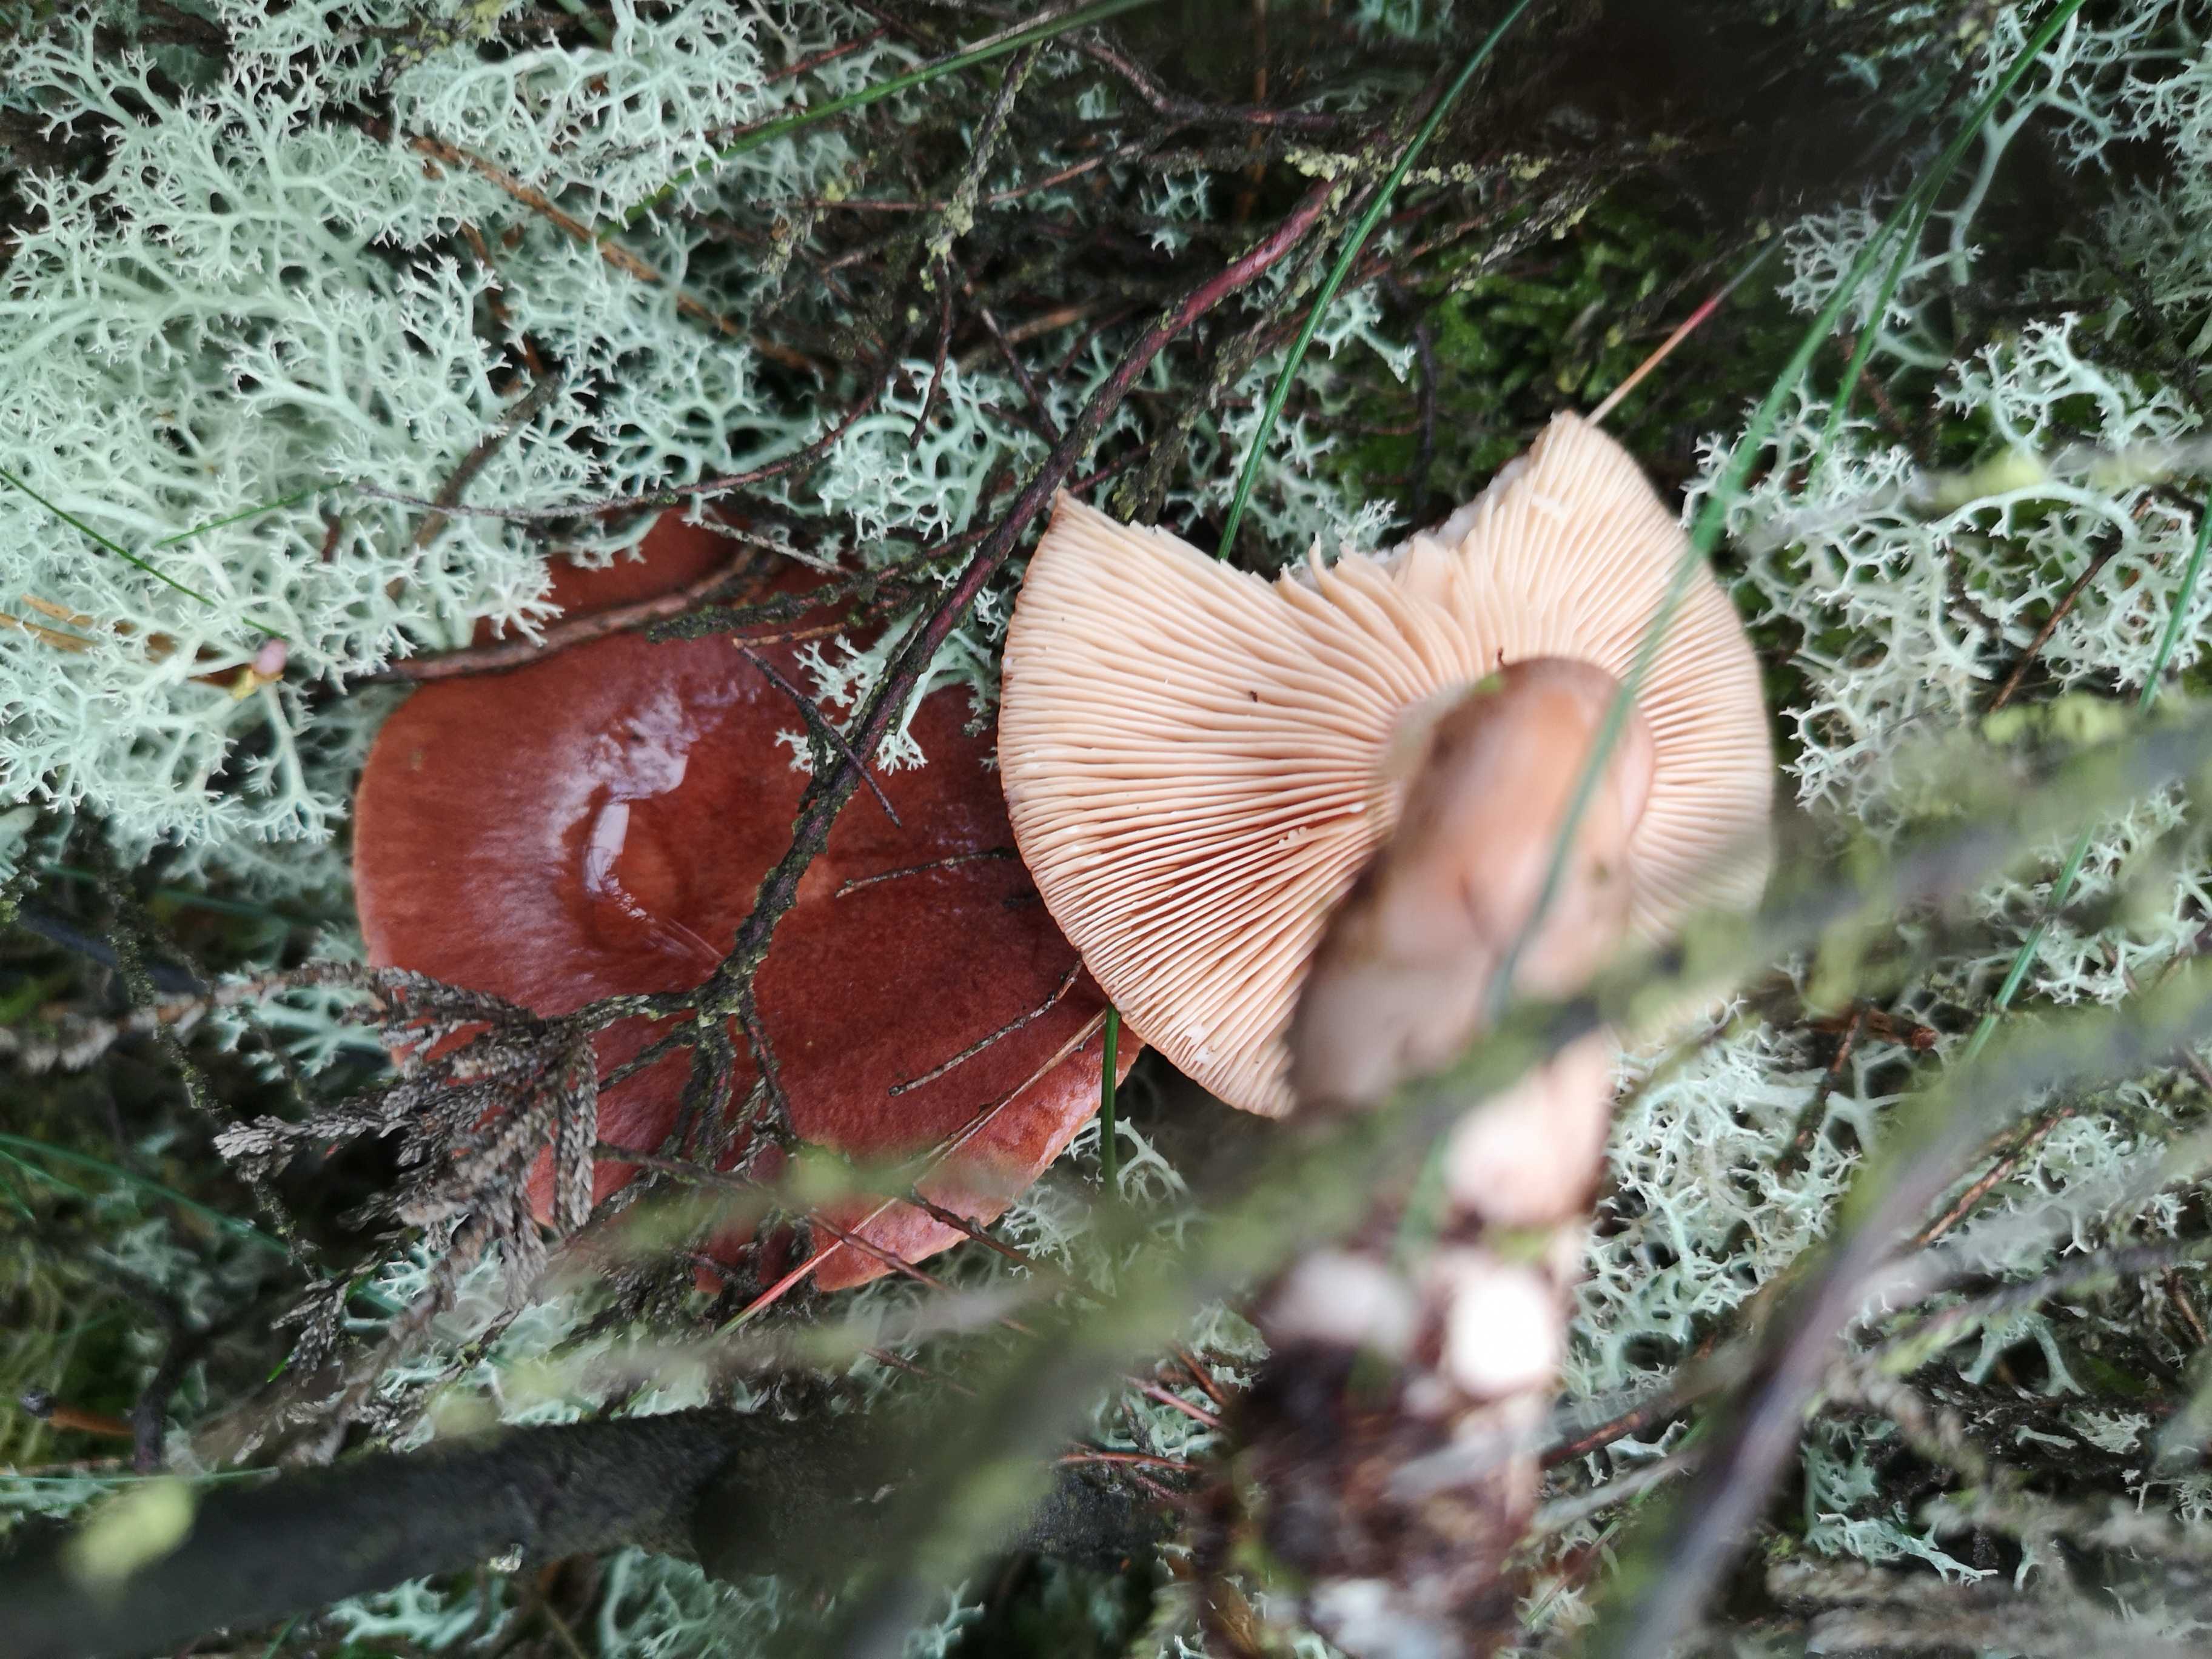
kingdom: Fungi
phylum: Basidiomycota
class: Agaricomycetes
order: Russulales
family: Russulaceae
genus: Lactarius
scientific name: Lactarius rufus
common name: rødbrun mælkehat
